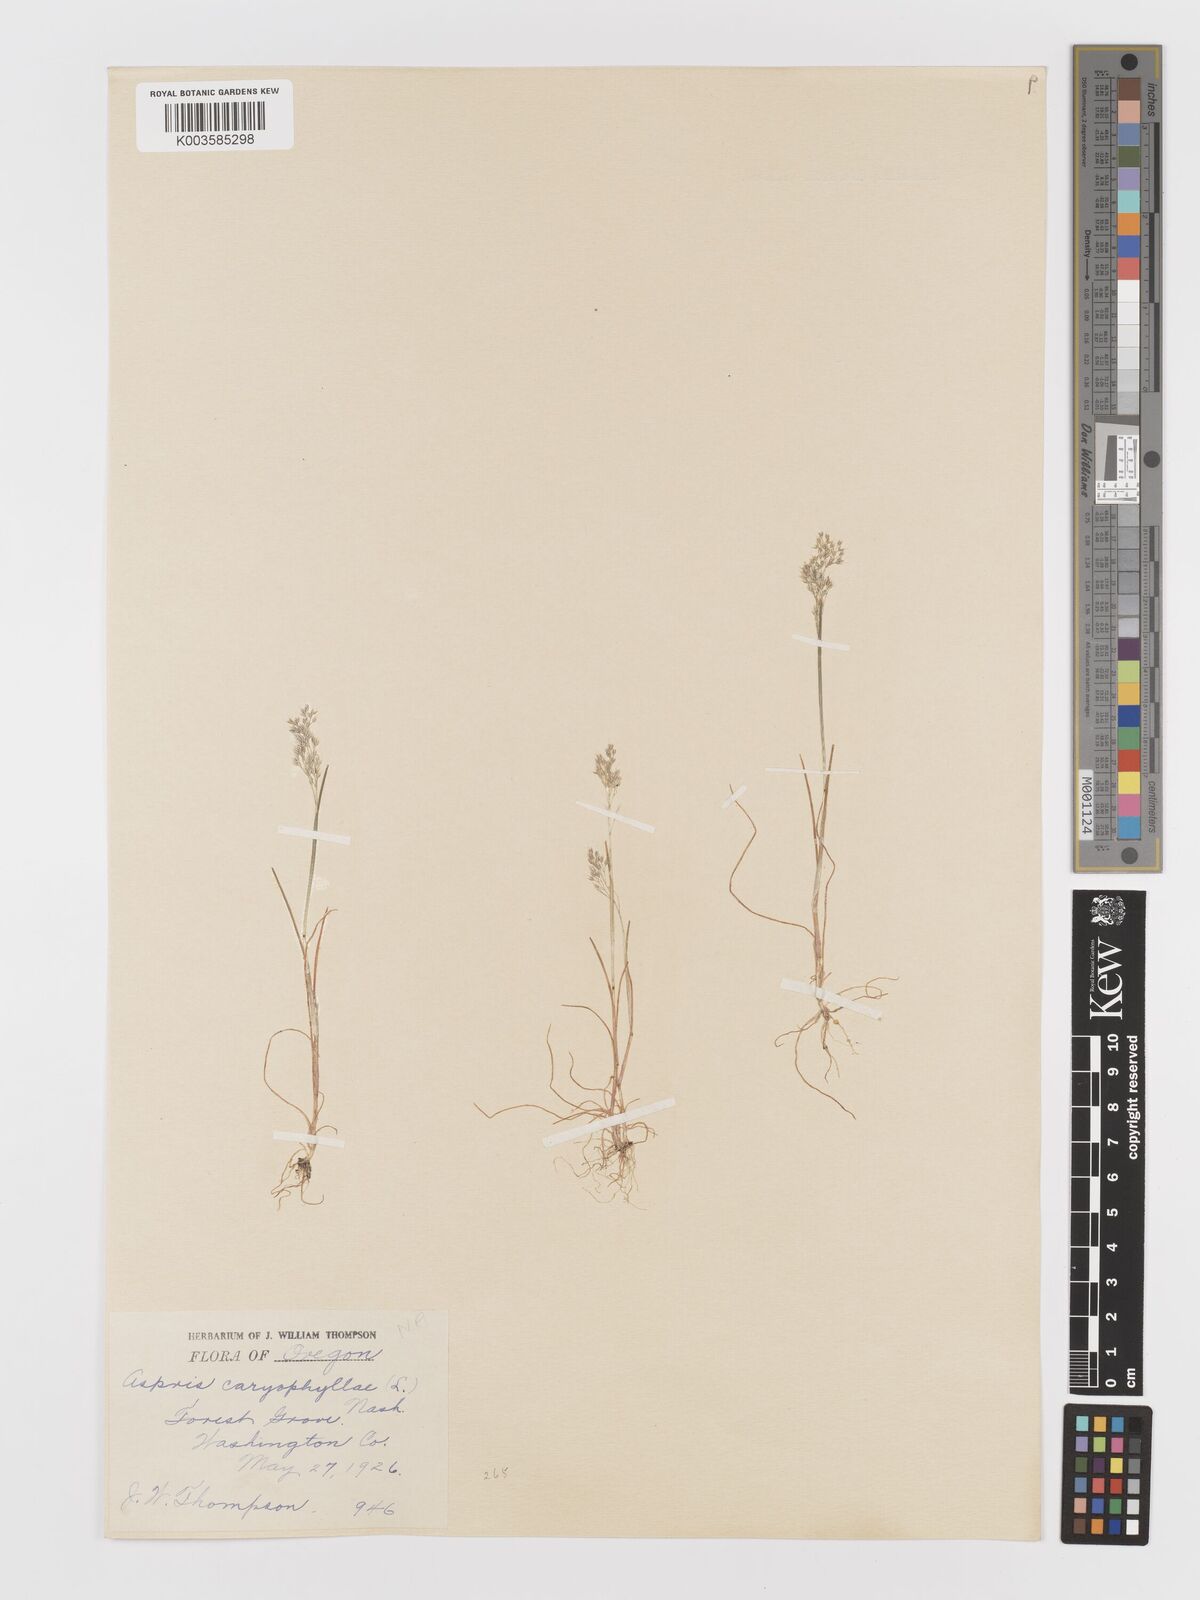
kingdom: Plantae
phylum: Tracheophyta
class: Liliopsida
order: Poales
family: Poaceae
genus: Aira
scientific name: Aira caryophyllea
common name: Silver hairgrass
